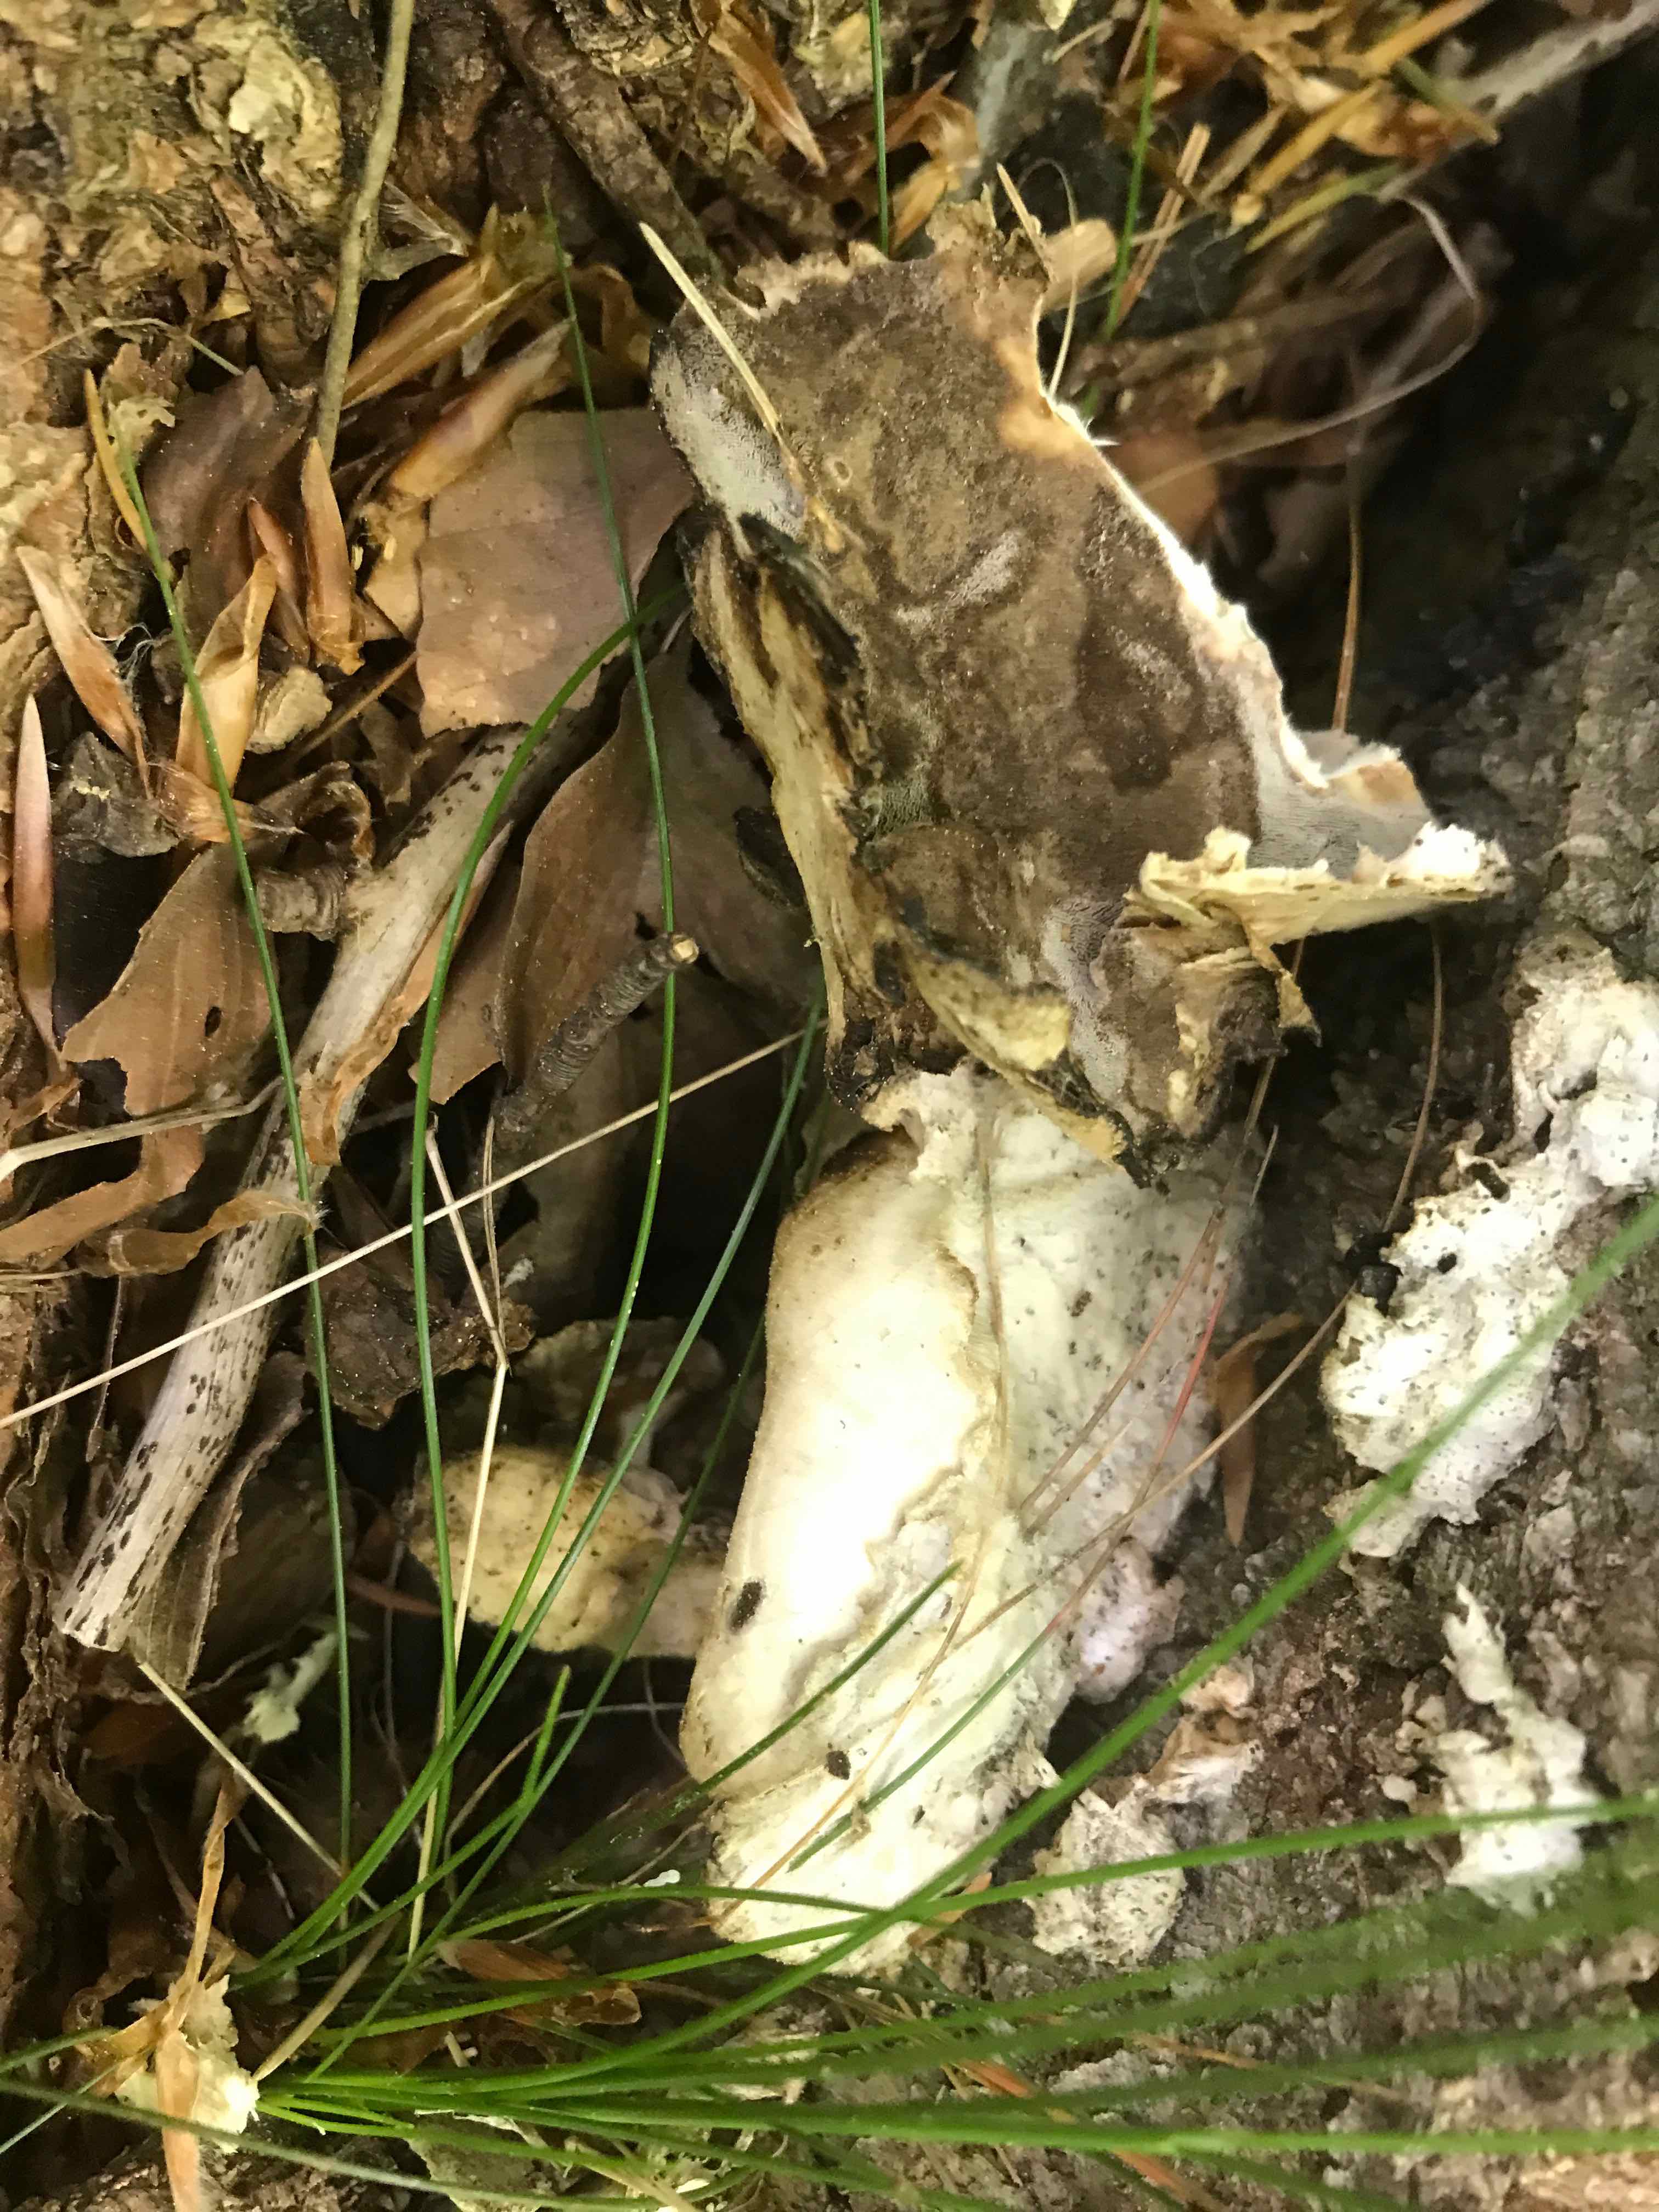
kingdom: Fungi
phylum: Basidiomycota
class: Agaricomycetes
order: Polyporales
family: Phanerochaetaceae
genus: Bjerkandera
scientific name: Bjerkandera adusta
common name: sveden sodporesvamp
